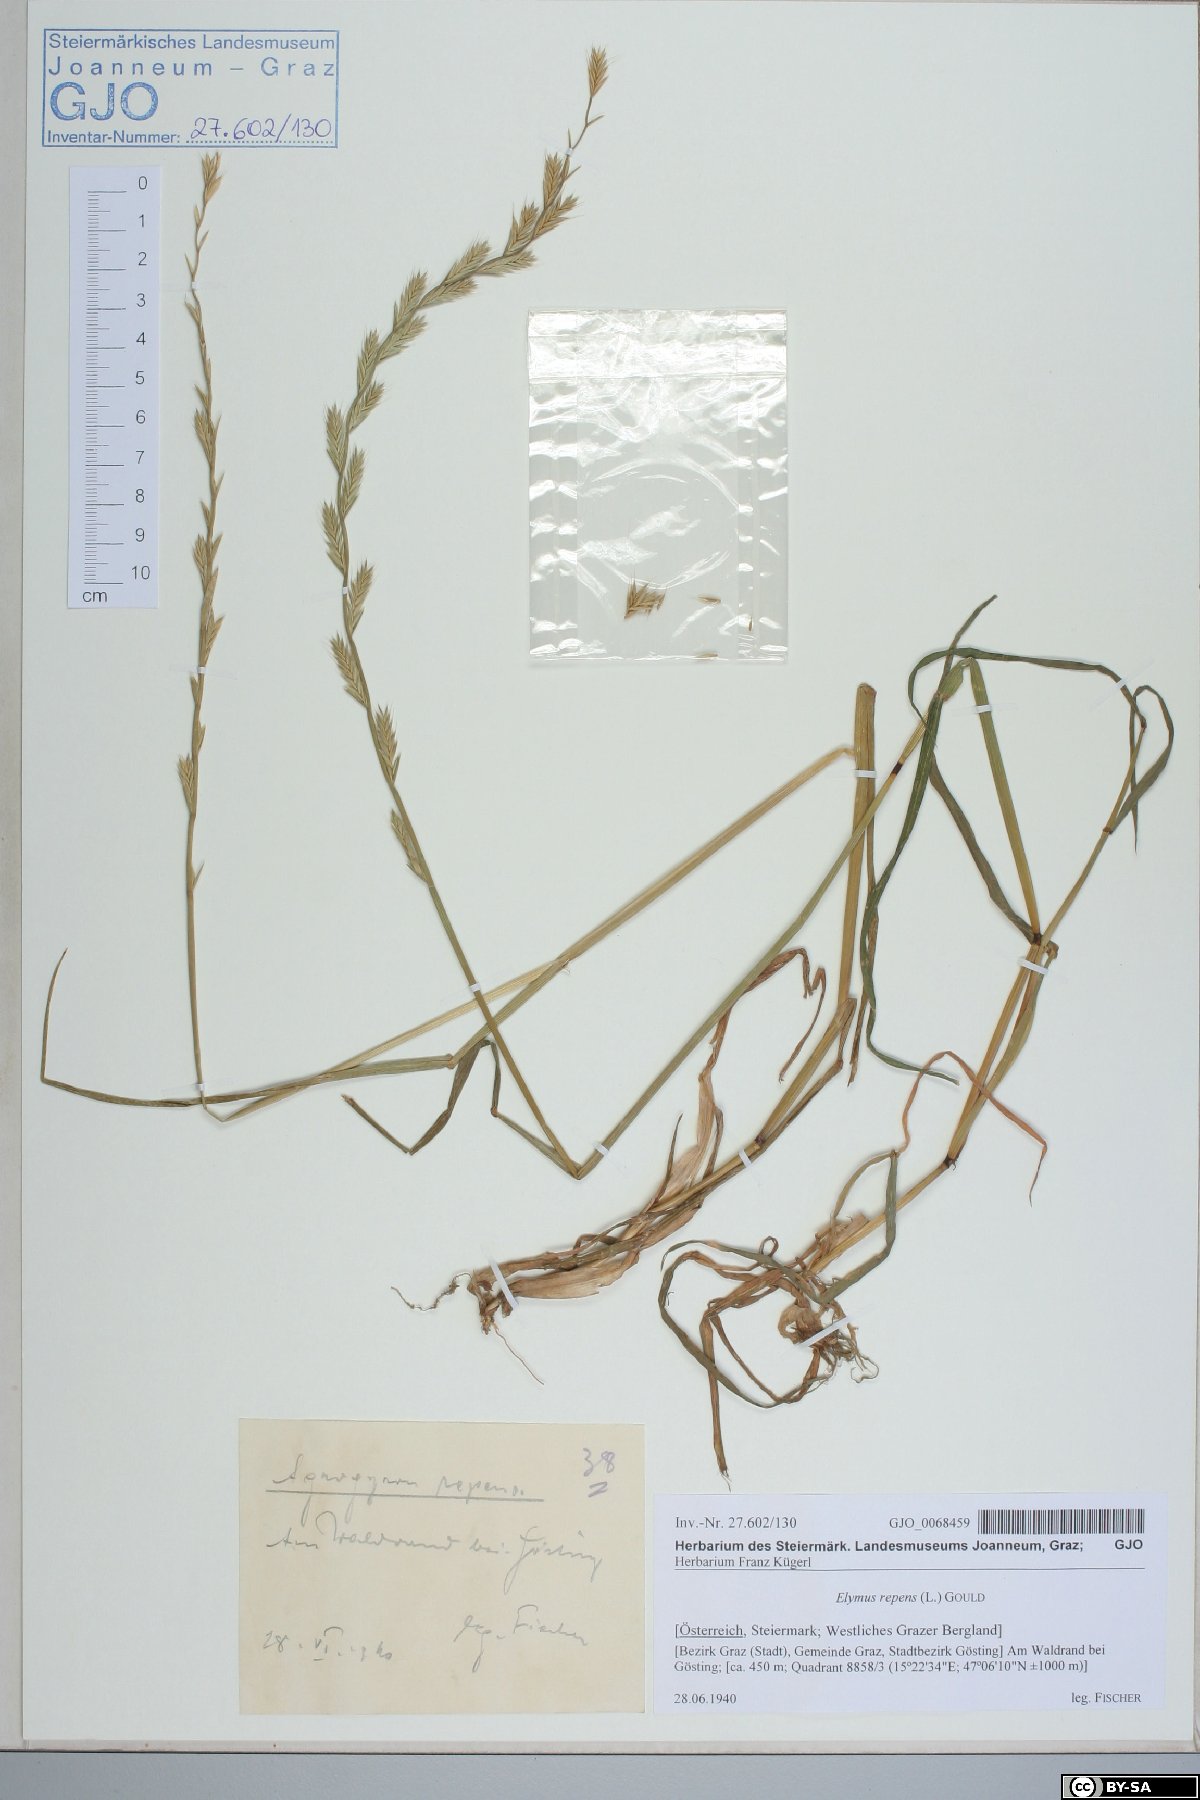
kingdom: Plantae
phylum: Tracheophyta
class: Liliopsida
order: Poales
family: Poaceae
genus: Elymus
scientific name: Elymus repens
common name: Quackgrass
